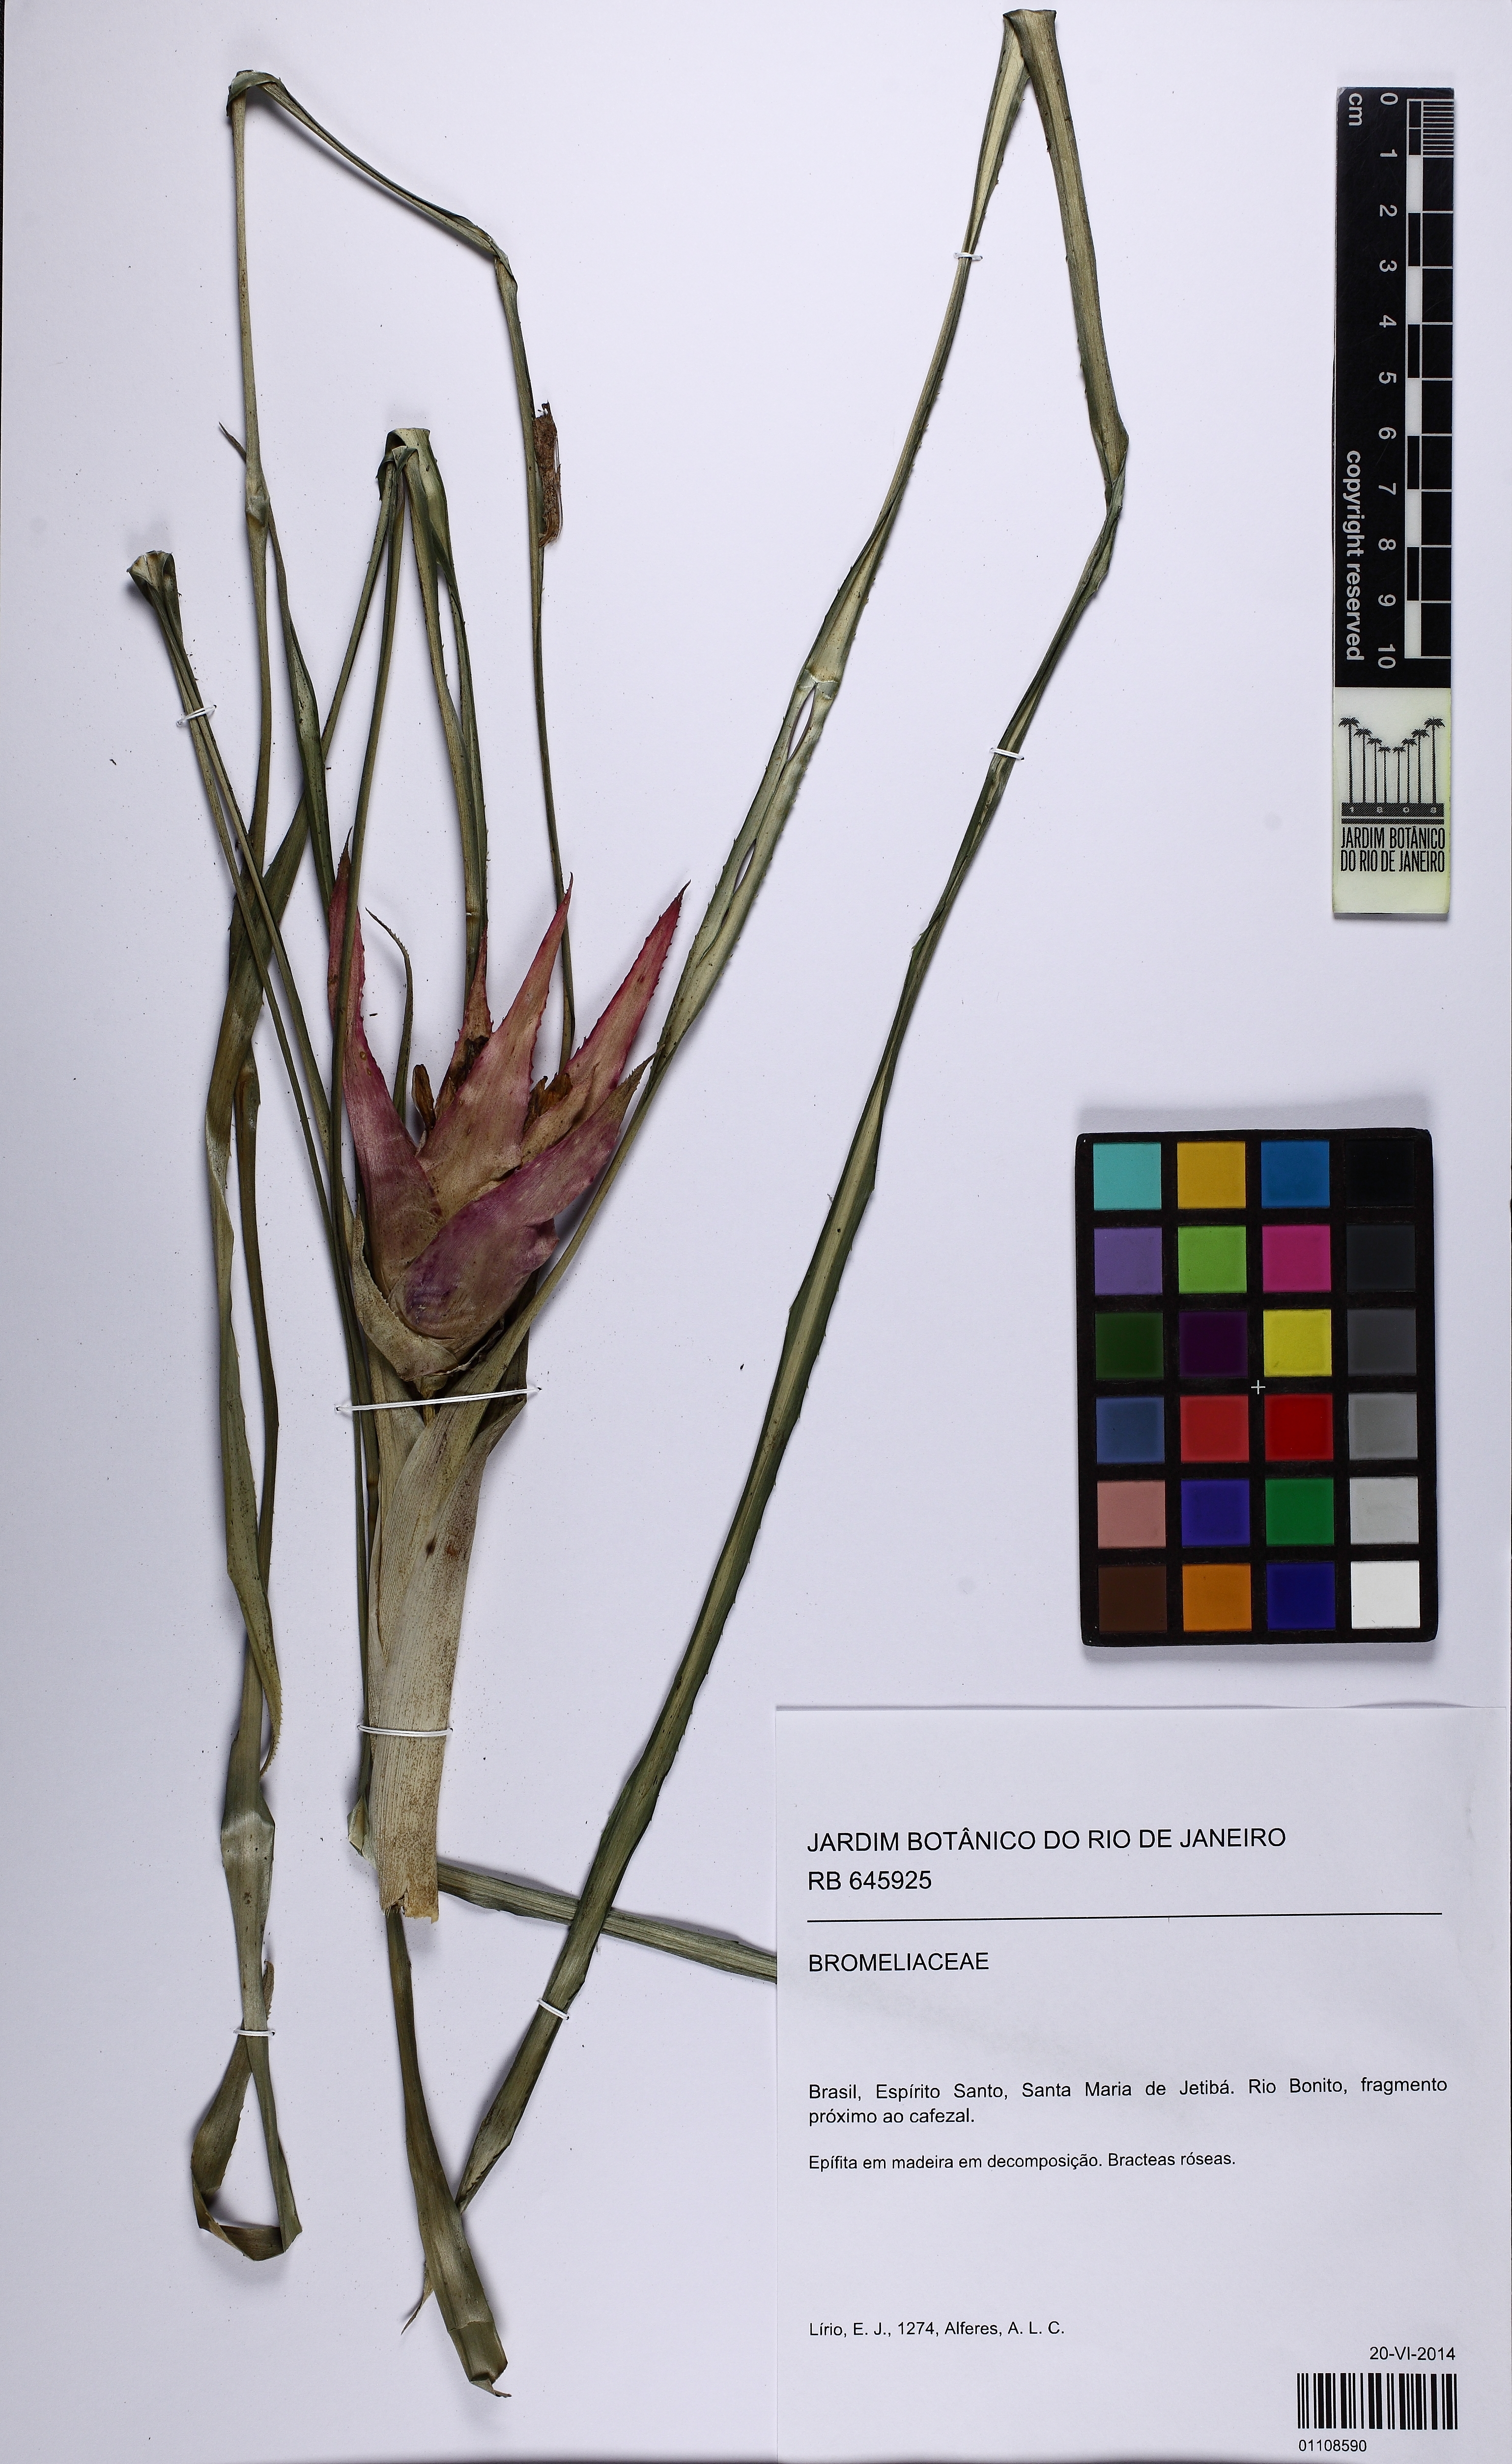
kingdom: Plantae
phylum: Tracheophyta
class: Liliopsida
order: Poales
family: Bromeliaceae
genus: Nidularium
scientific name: Nidularium
